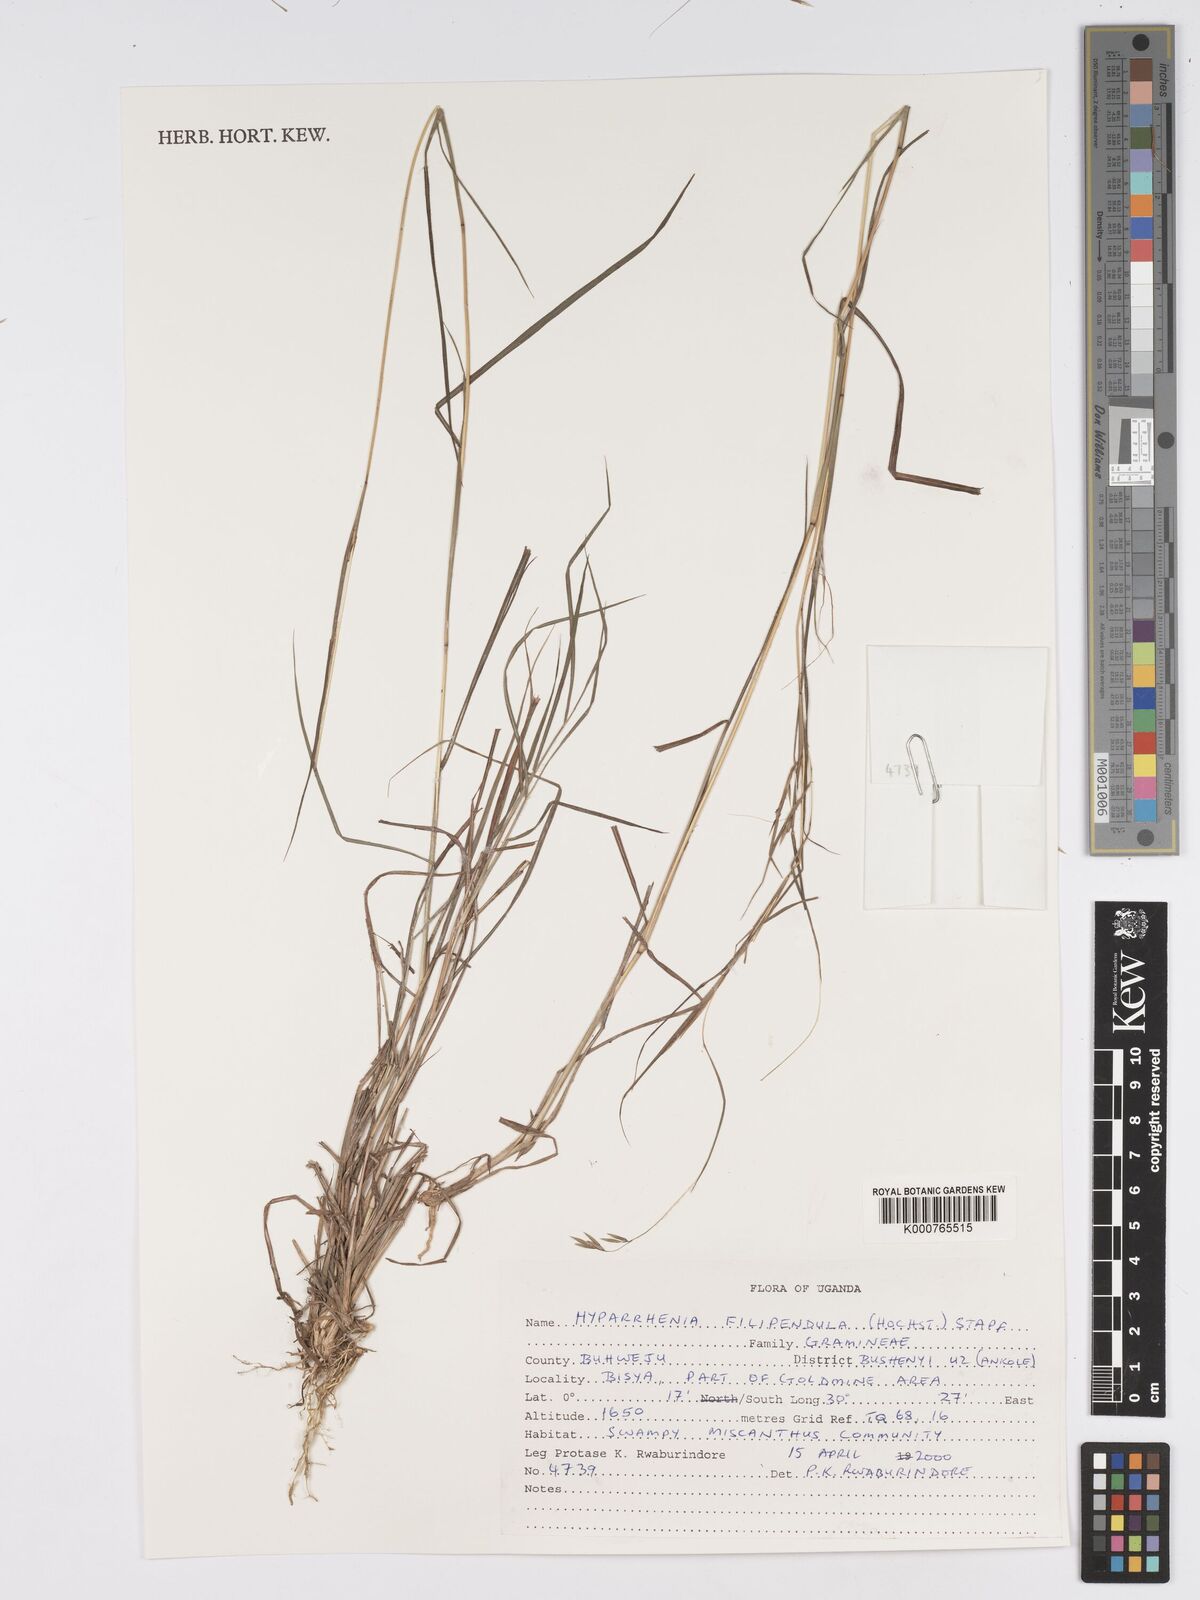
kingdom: Plantae
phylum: Tracheophyta
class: Liliopsida
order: Poales
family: Poaceae
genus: Hyparrhenia
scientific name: Hyparrhenia filipendula
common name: Tambookie grass
